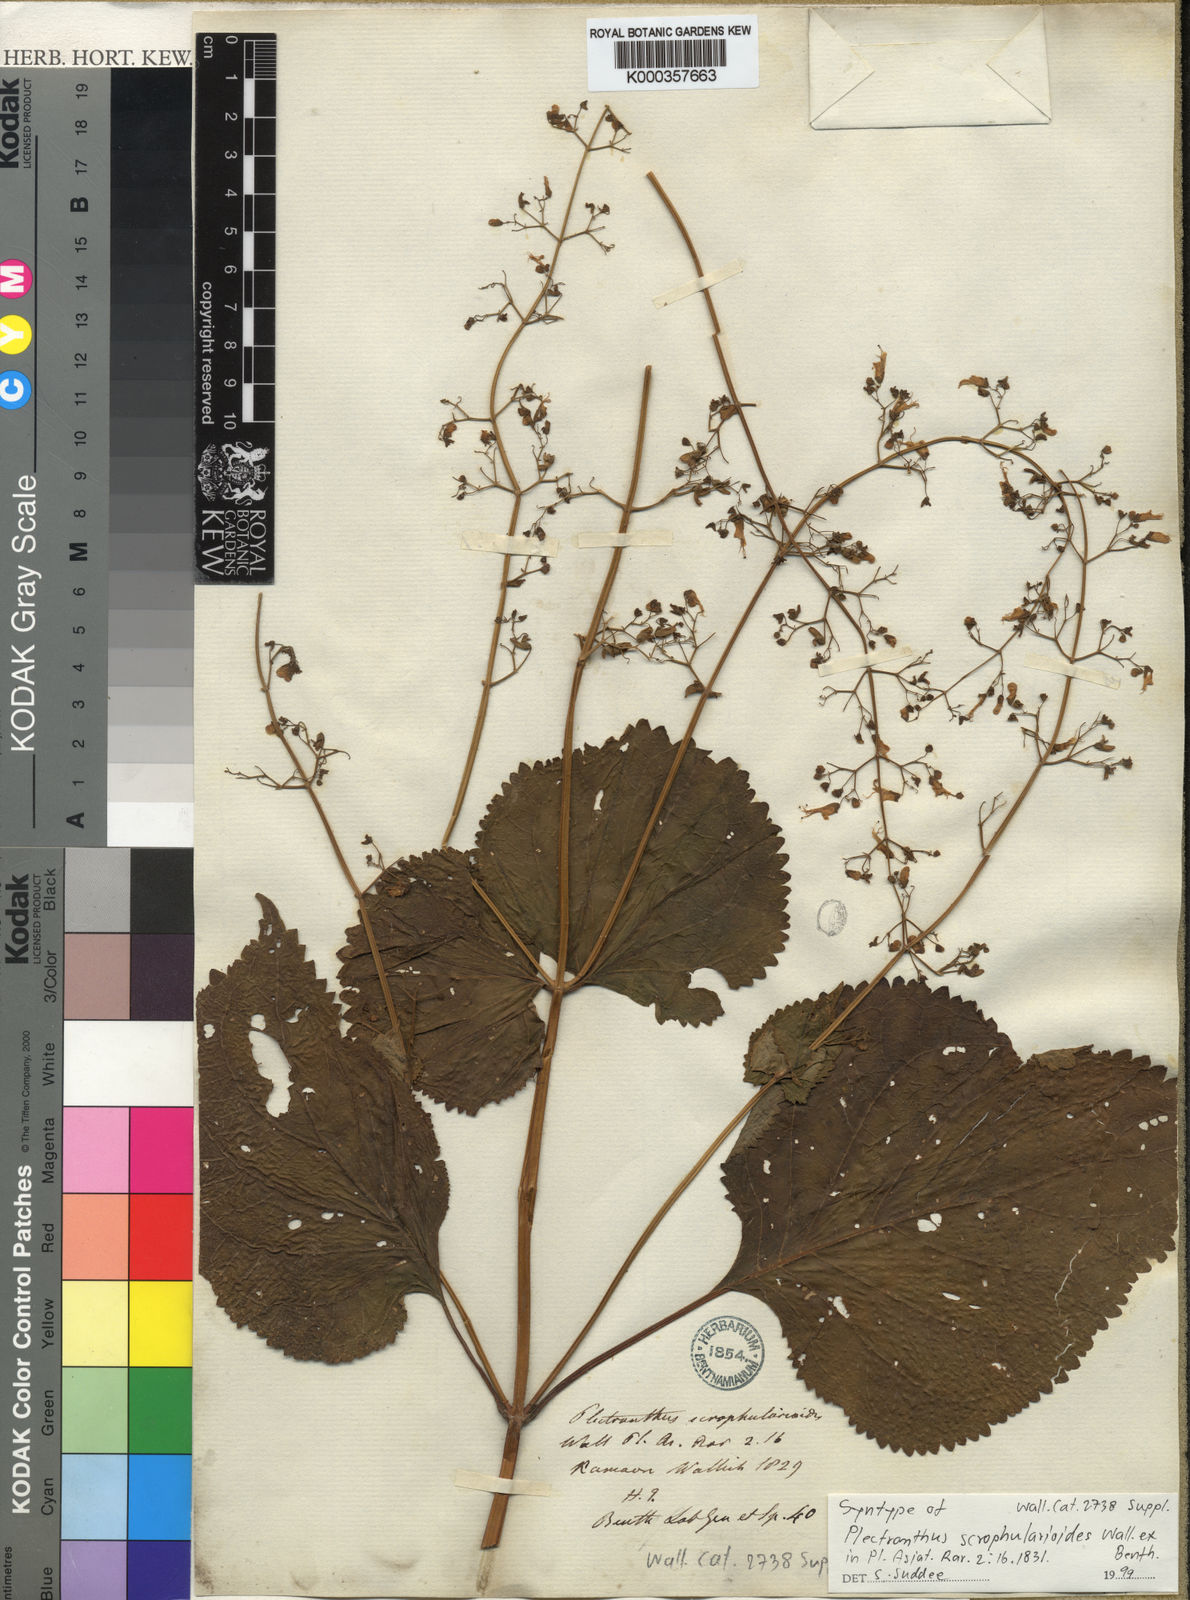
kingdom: Plantae
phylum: Tracheophyta
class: Magnoliopsida
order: Lamiales
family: Lamiaceae
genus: Plectranthus
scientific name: Plectranthus
